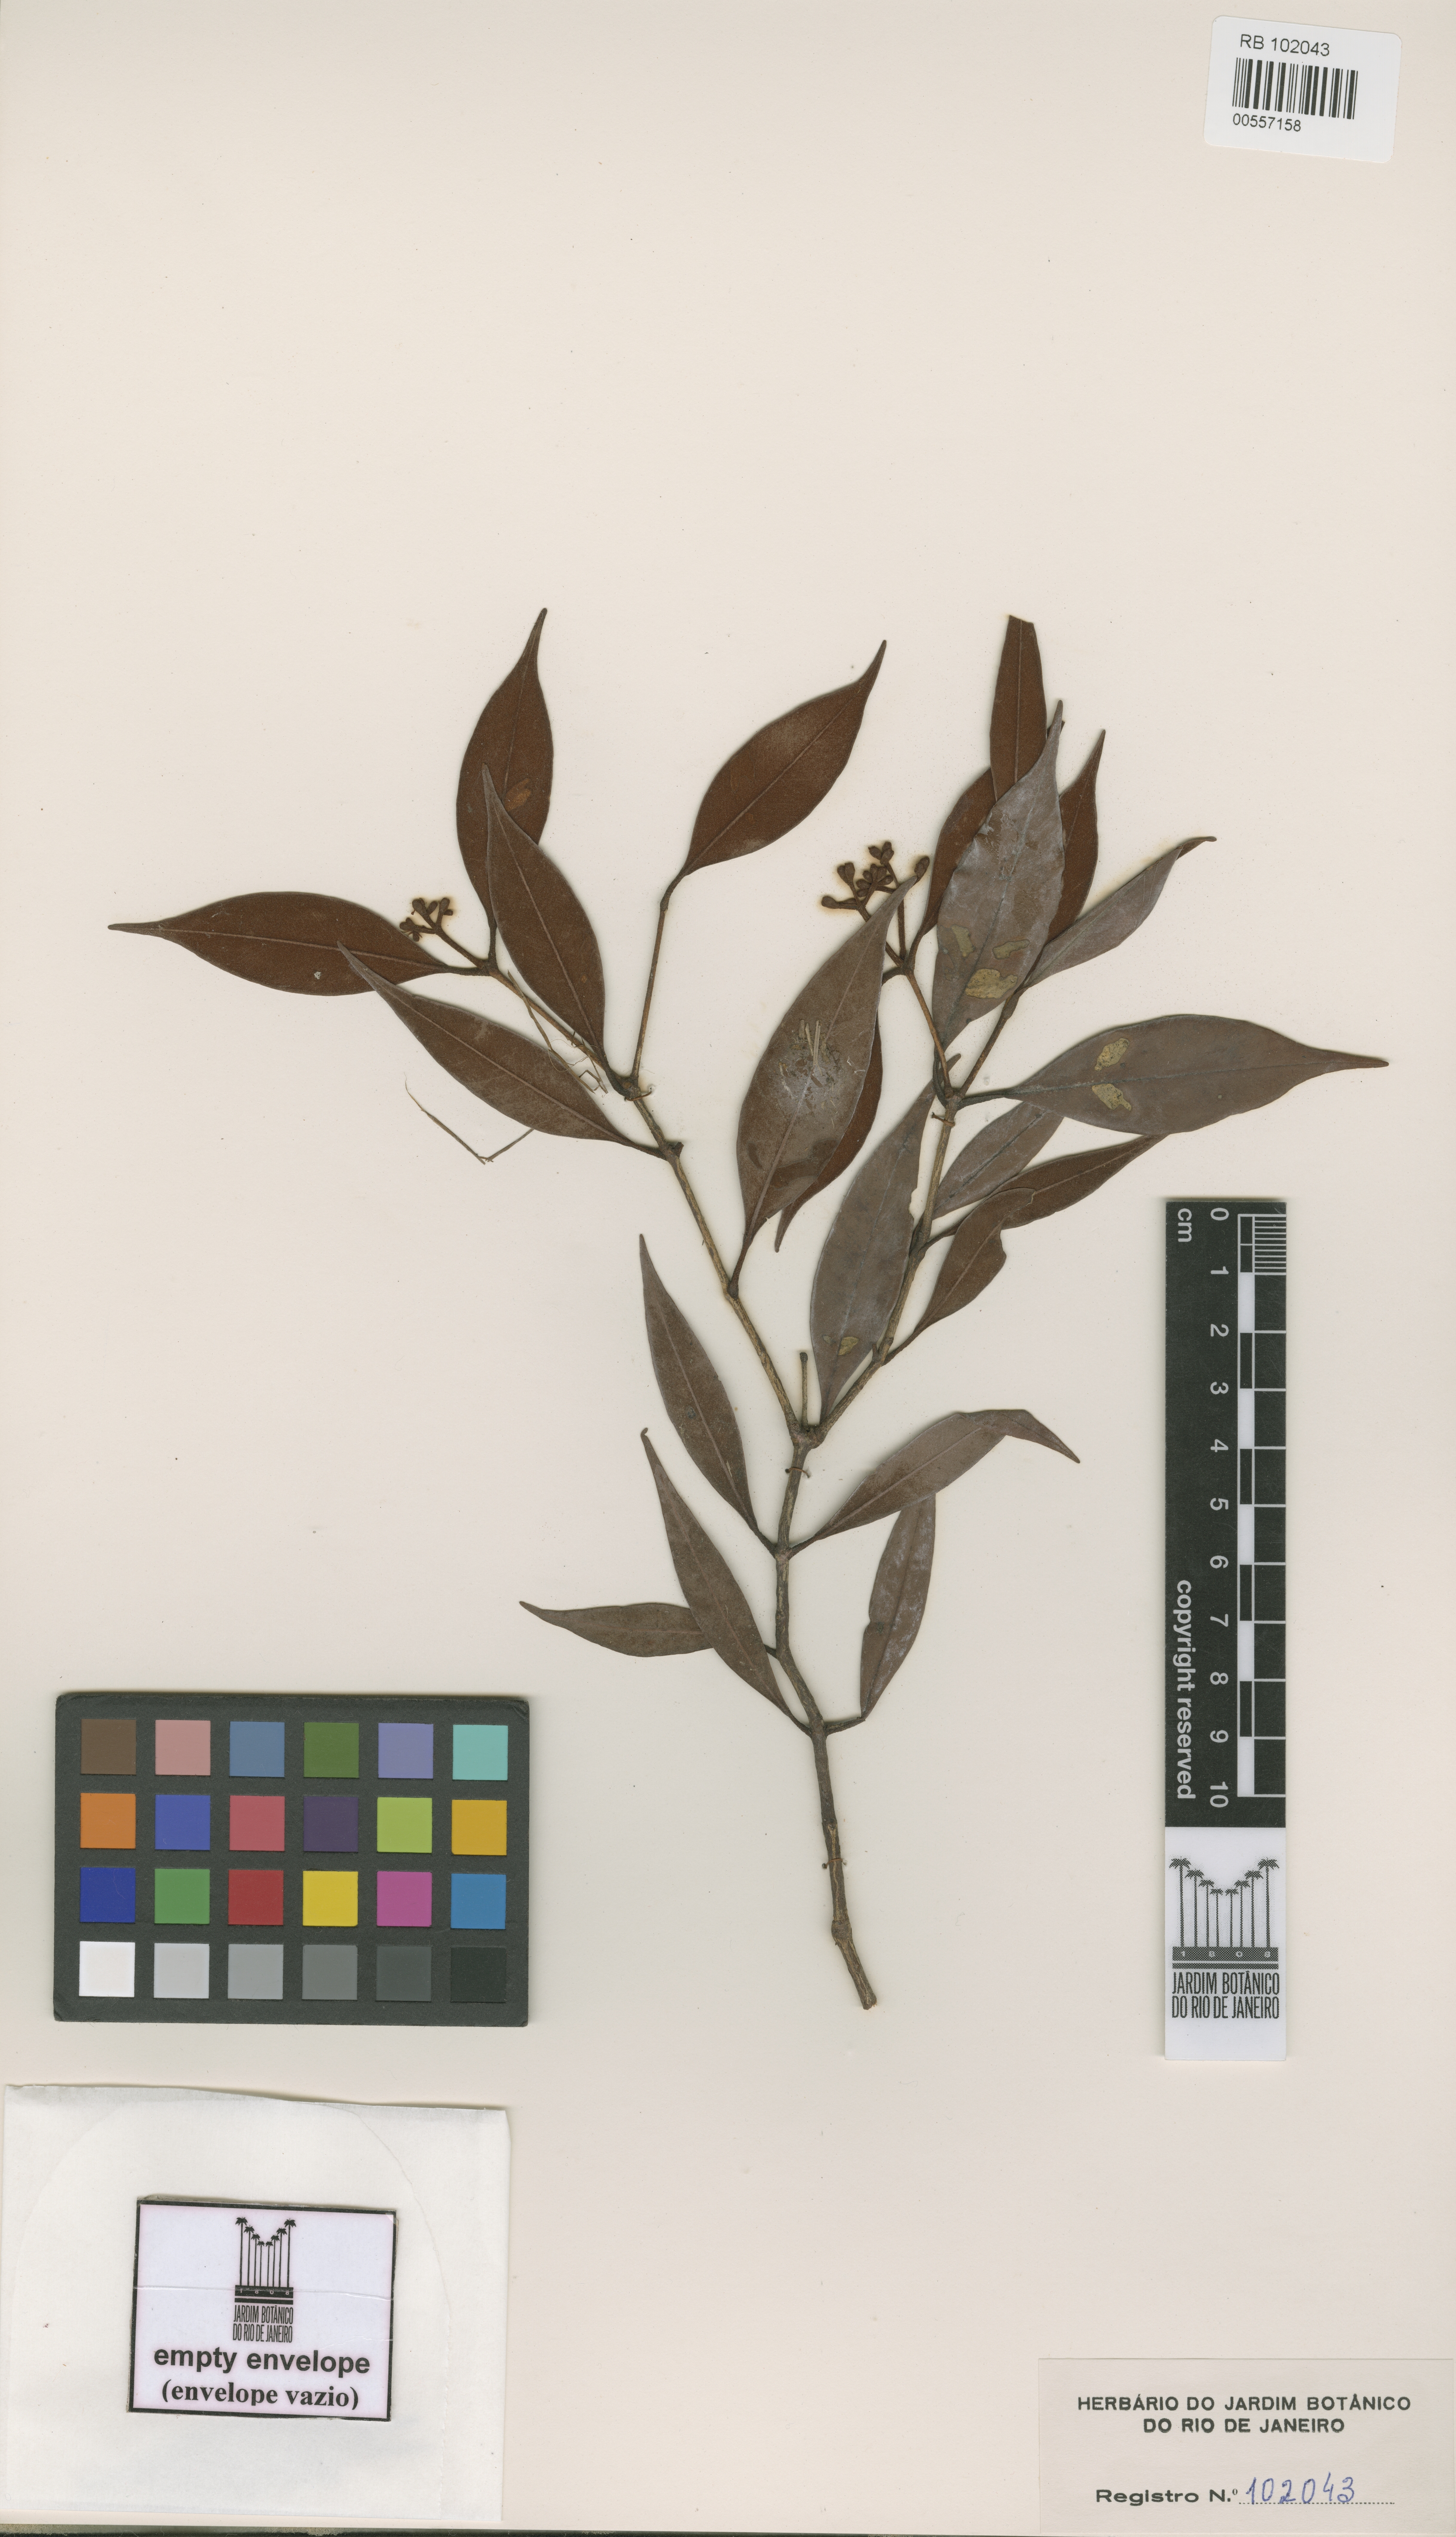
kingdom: Plantae
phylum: Tracheophyta
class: Magnoliopsida
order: Myrtales
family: Myrtaceae
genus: Myrcia
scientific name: Myrcia summa
